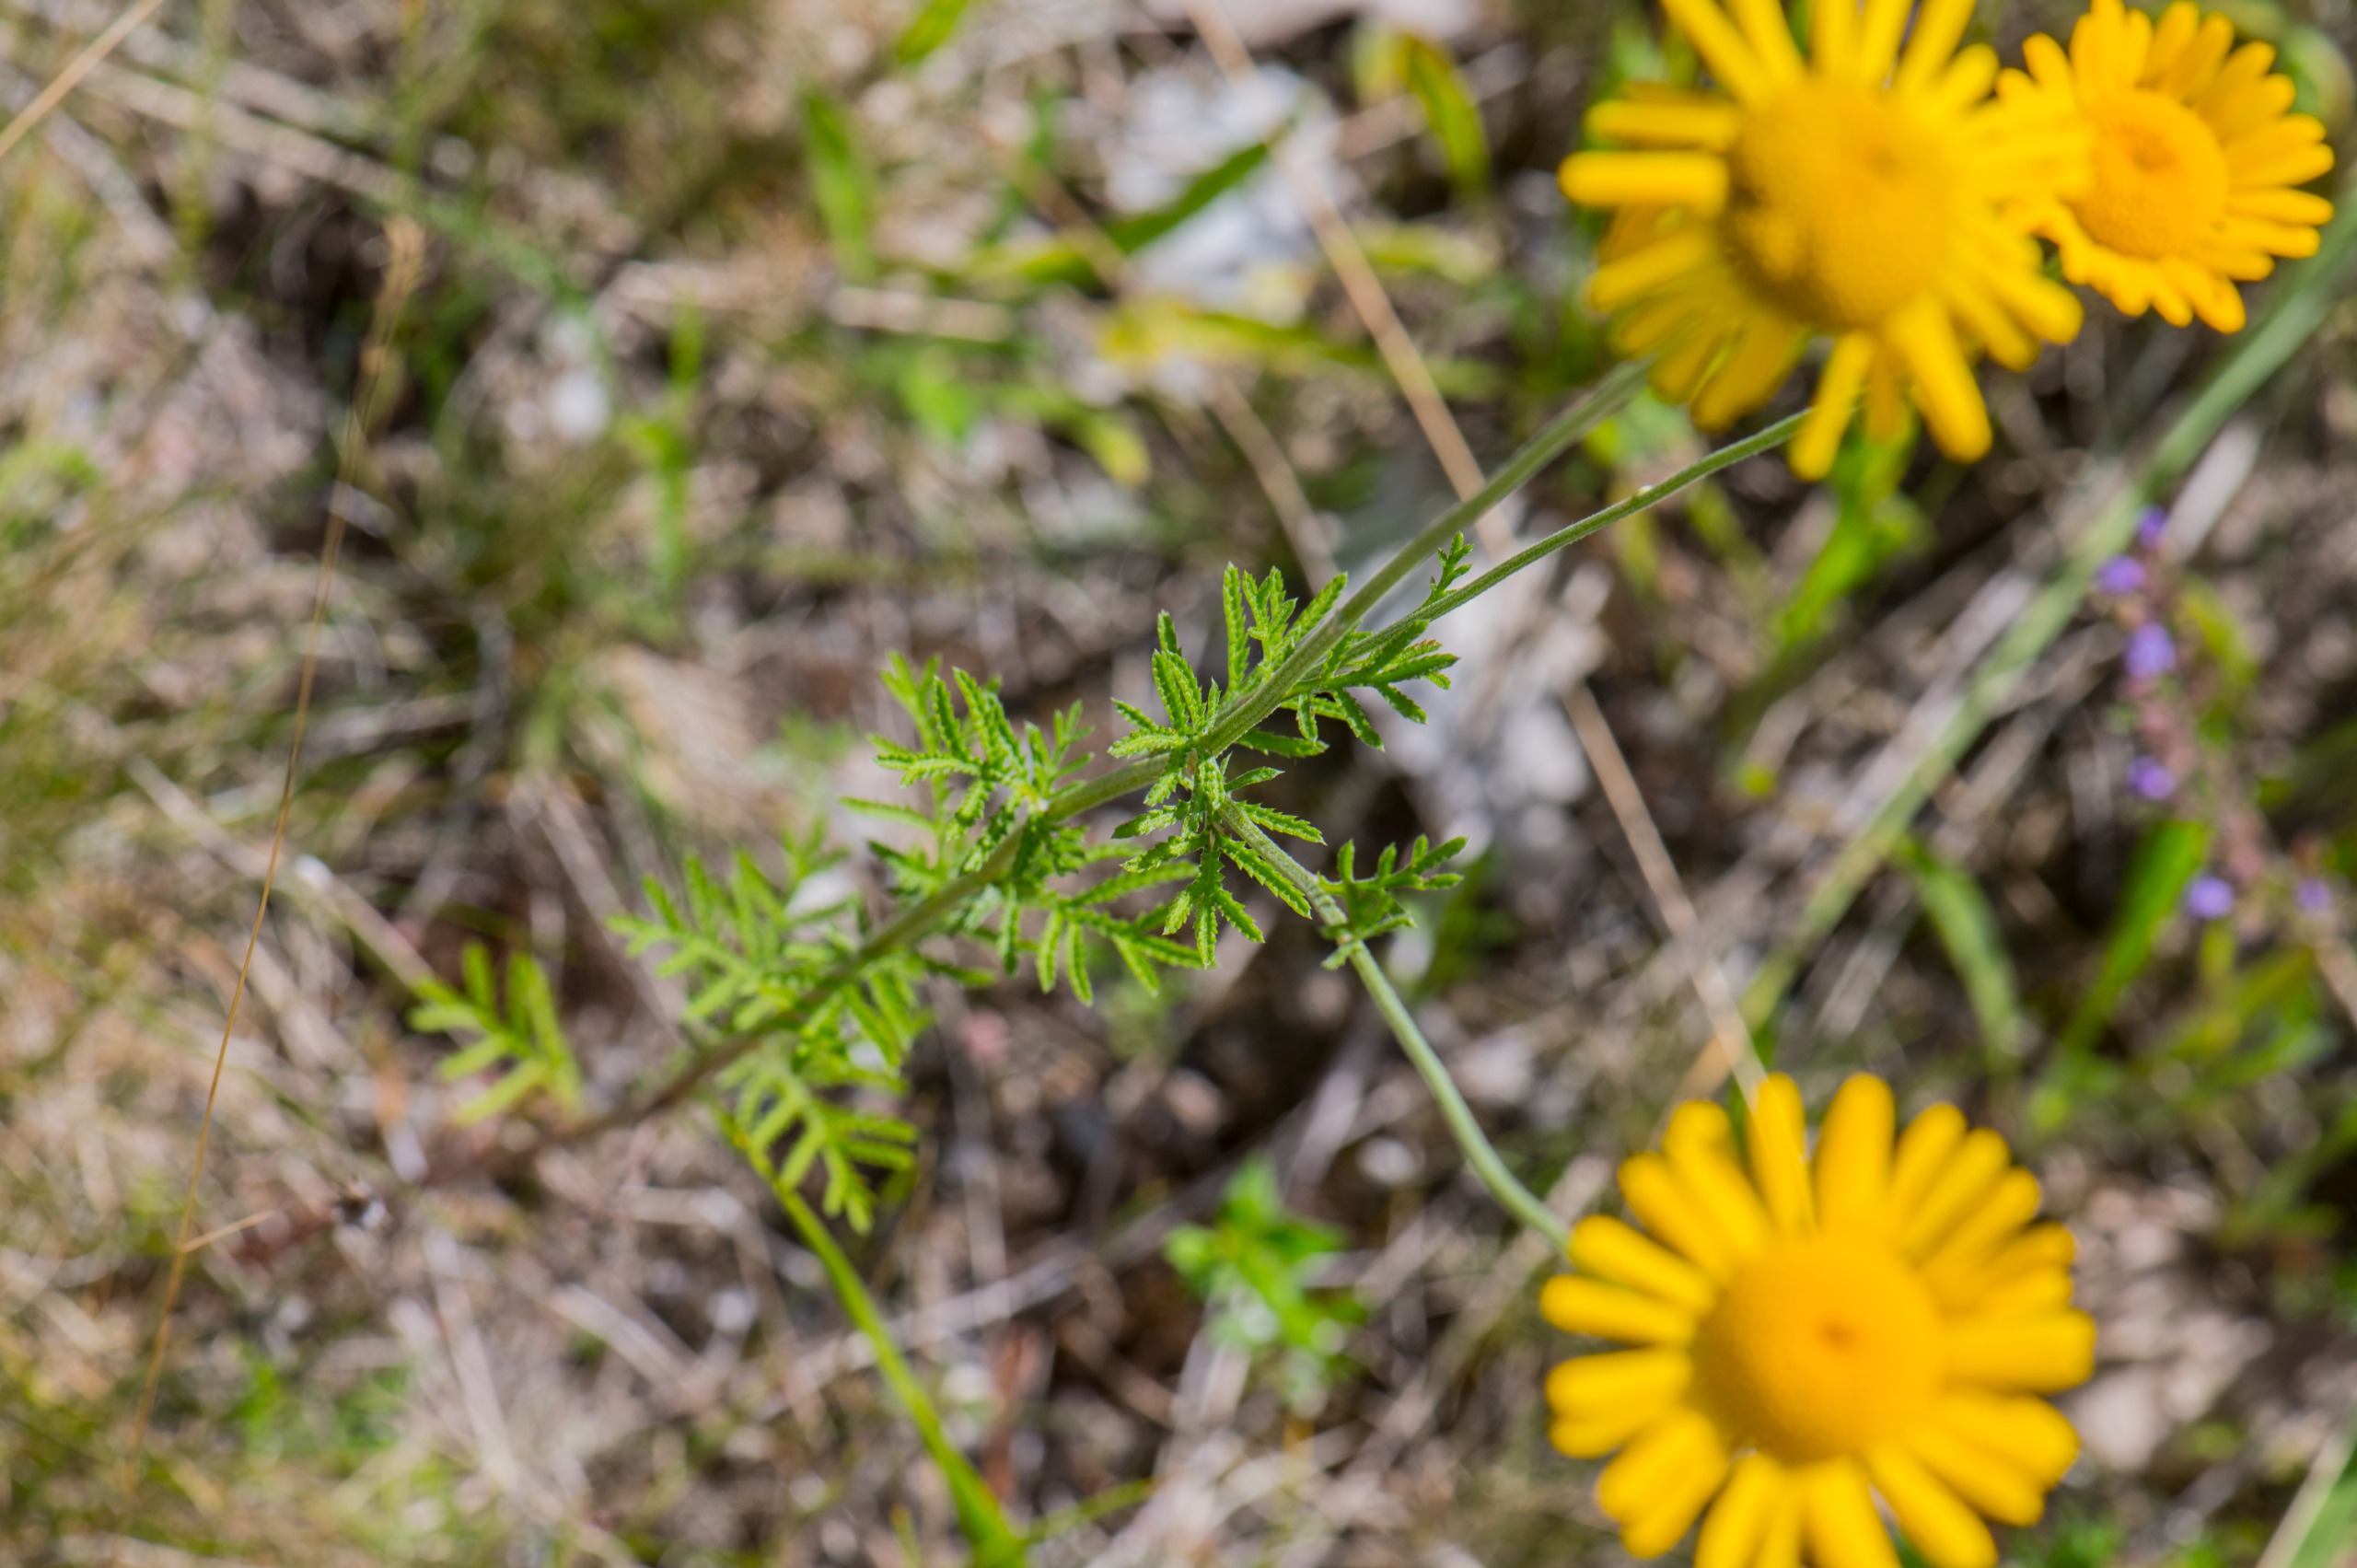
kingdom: Plantae
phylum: Tracheophyta
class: Magnoliopsida
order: Asterales
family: Asteraceae
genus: Cota
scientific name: Cota tinctoria
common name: Farve-gåseurt
